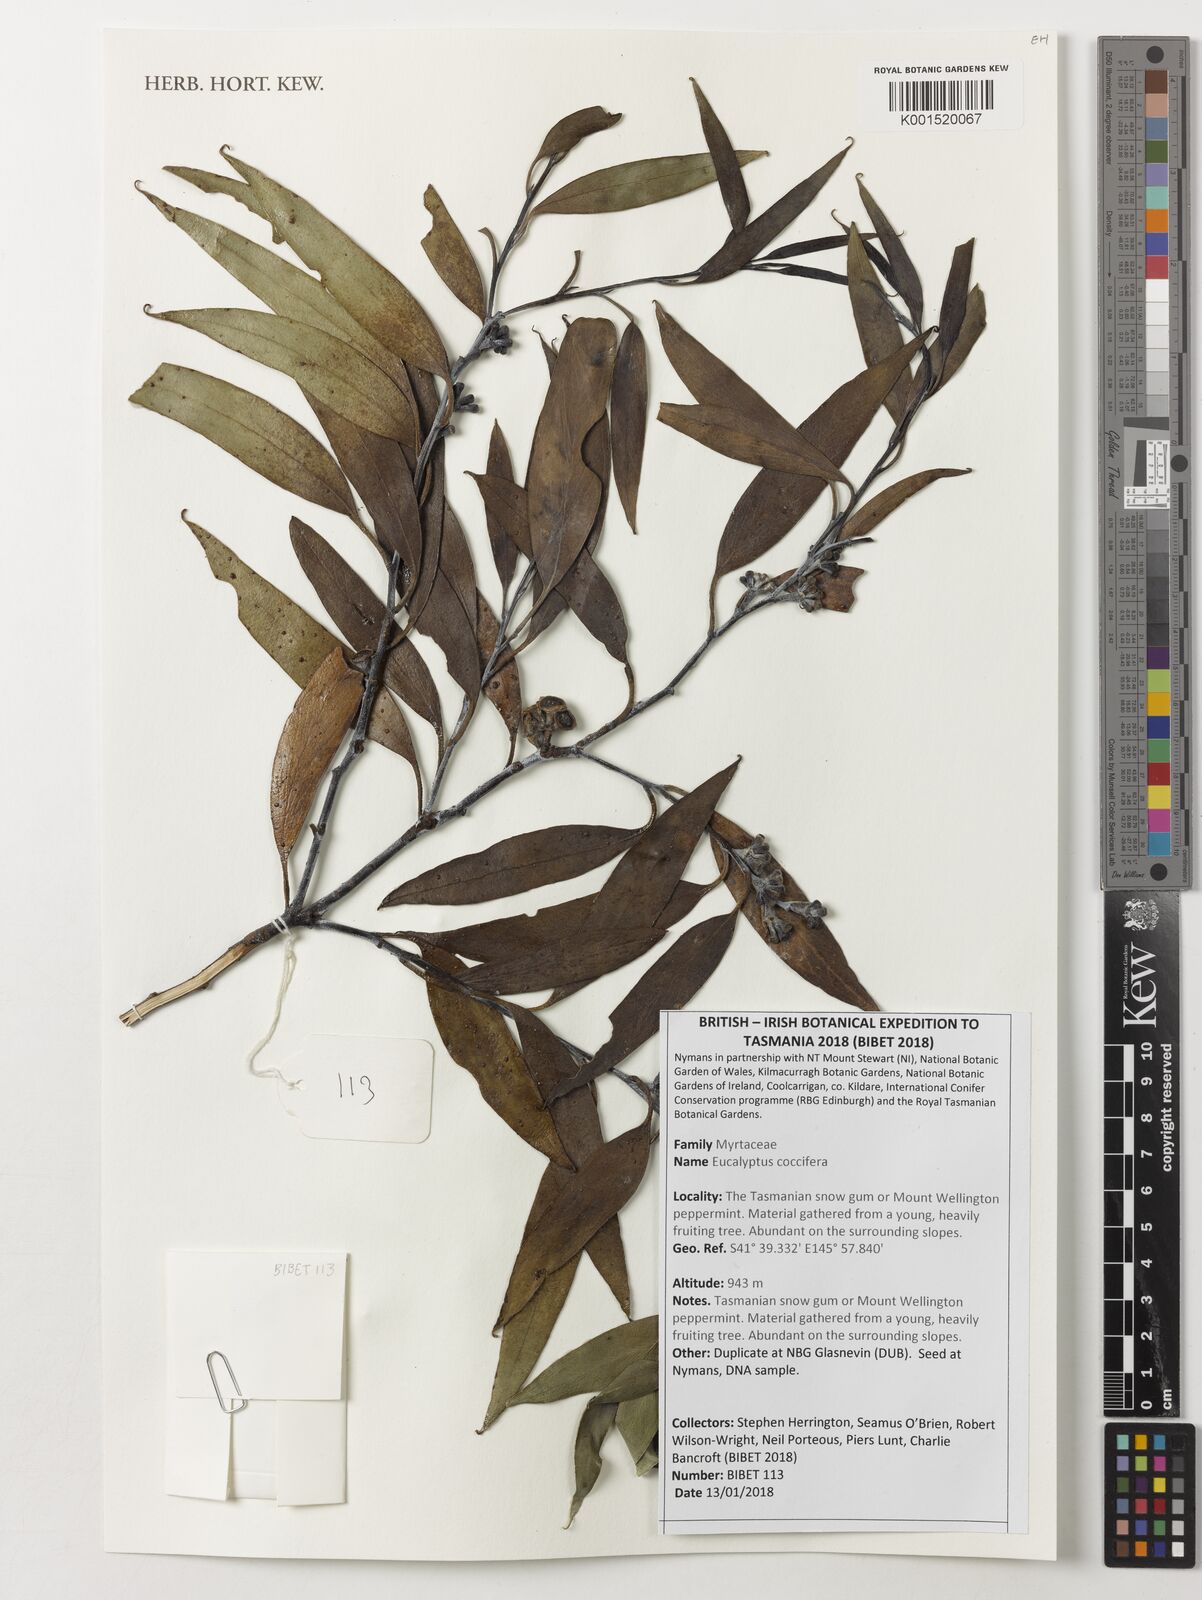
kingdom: Plantae
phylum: Tracheophyta
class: Magnoliopsida
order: Myrtales
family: Myrtaceae
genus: Eucalyptus
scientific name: Eucalyptus coccifera
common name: Tasmanian snow-gum
